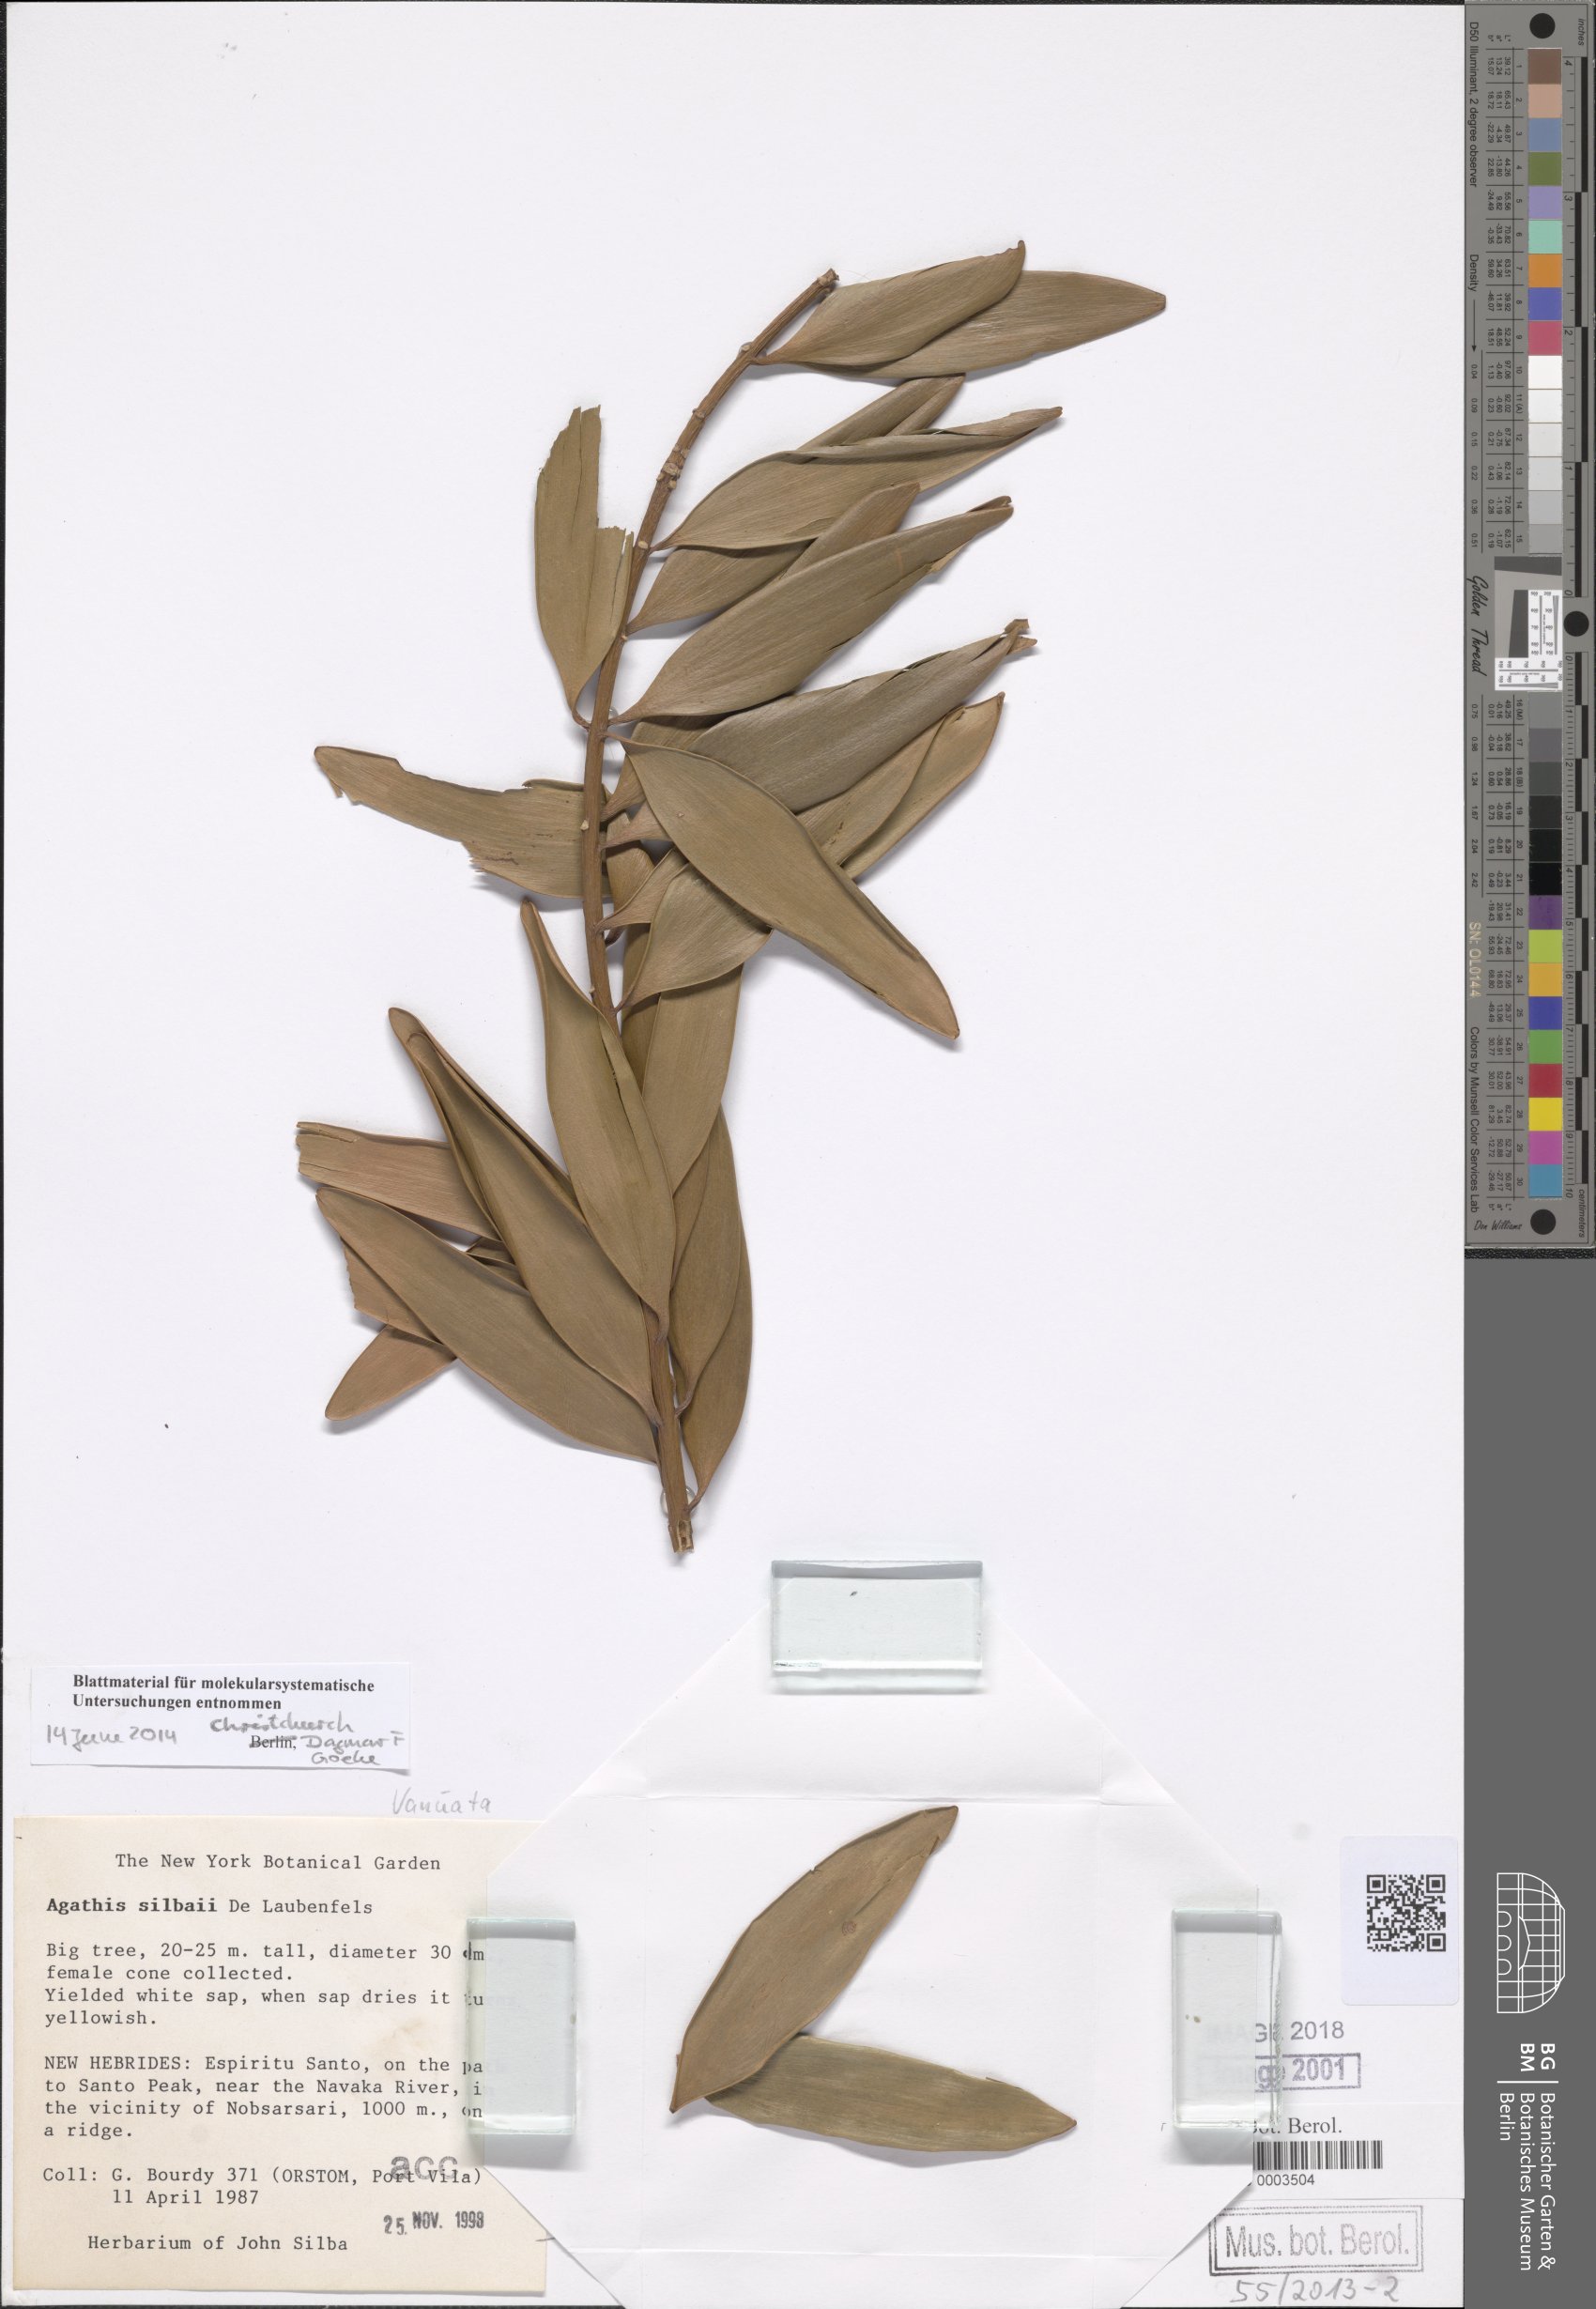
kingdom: Plantae
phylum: Tracheophyta
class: Pinopsida
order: Pinales
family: Araucariaceae
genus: Agathis
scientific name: Agathis silbae
